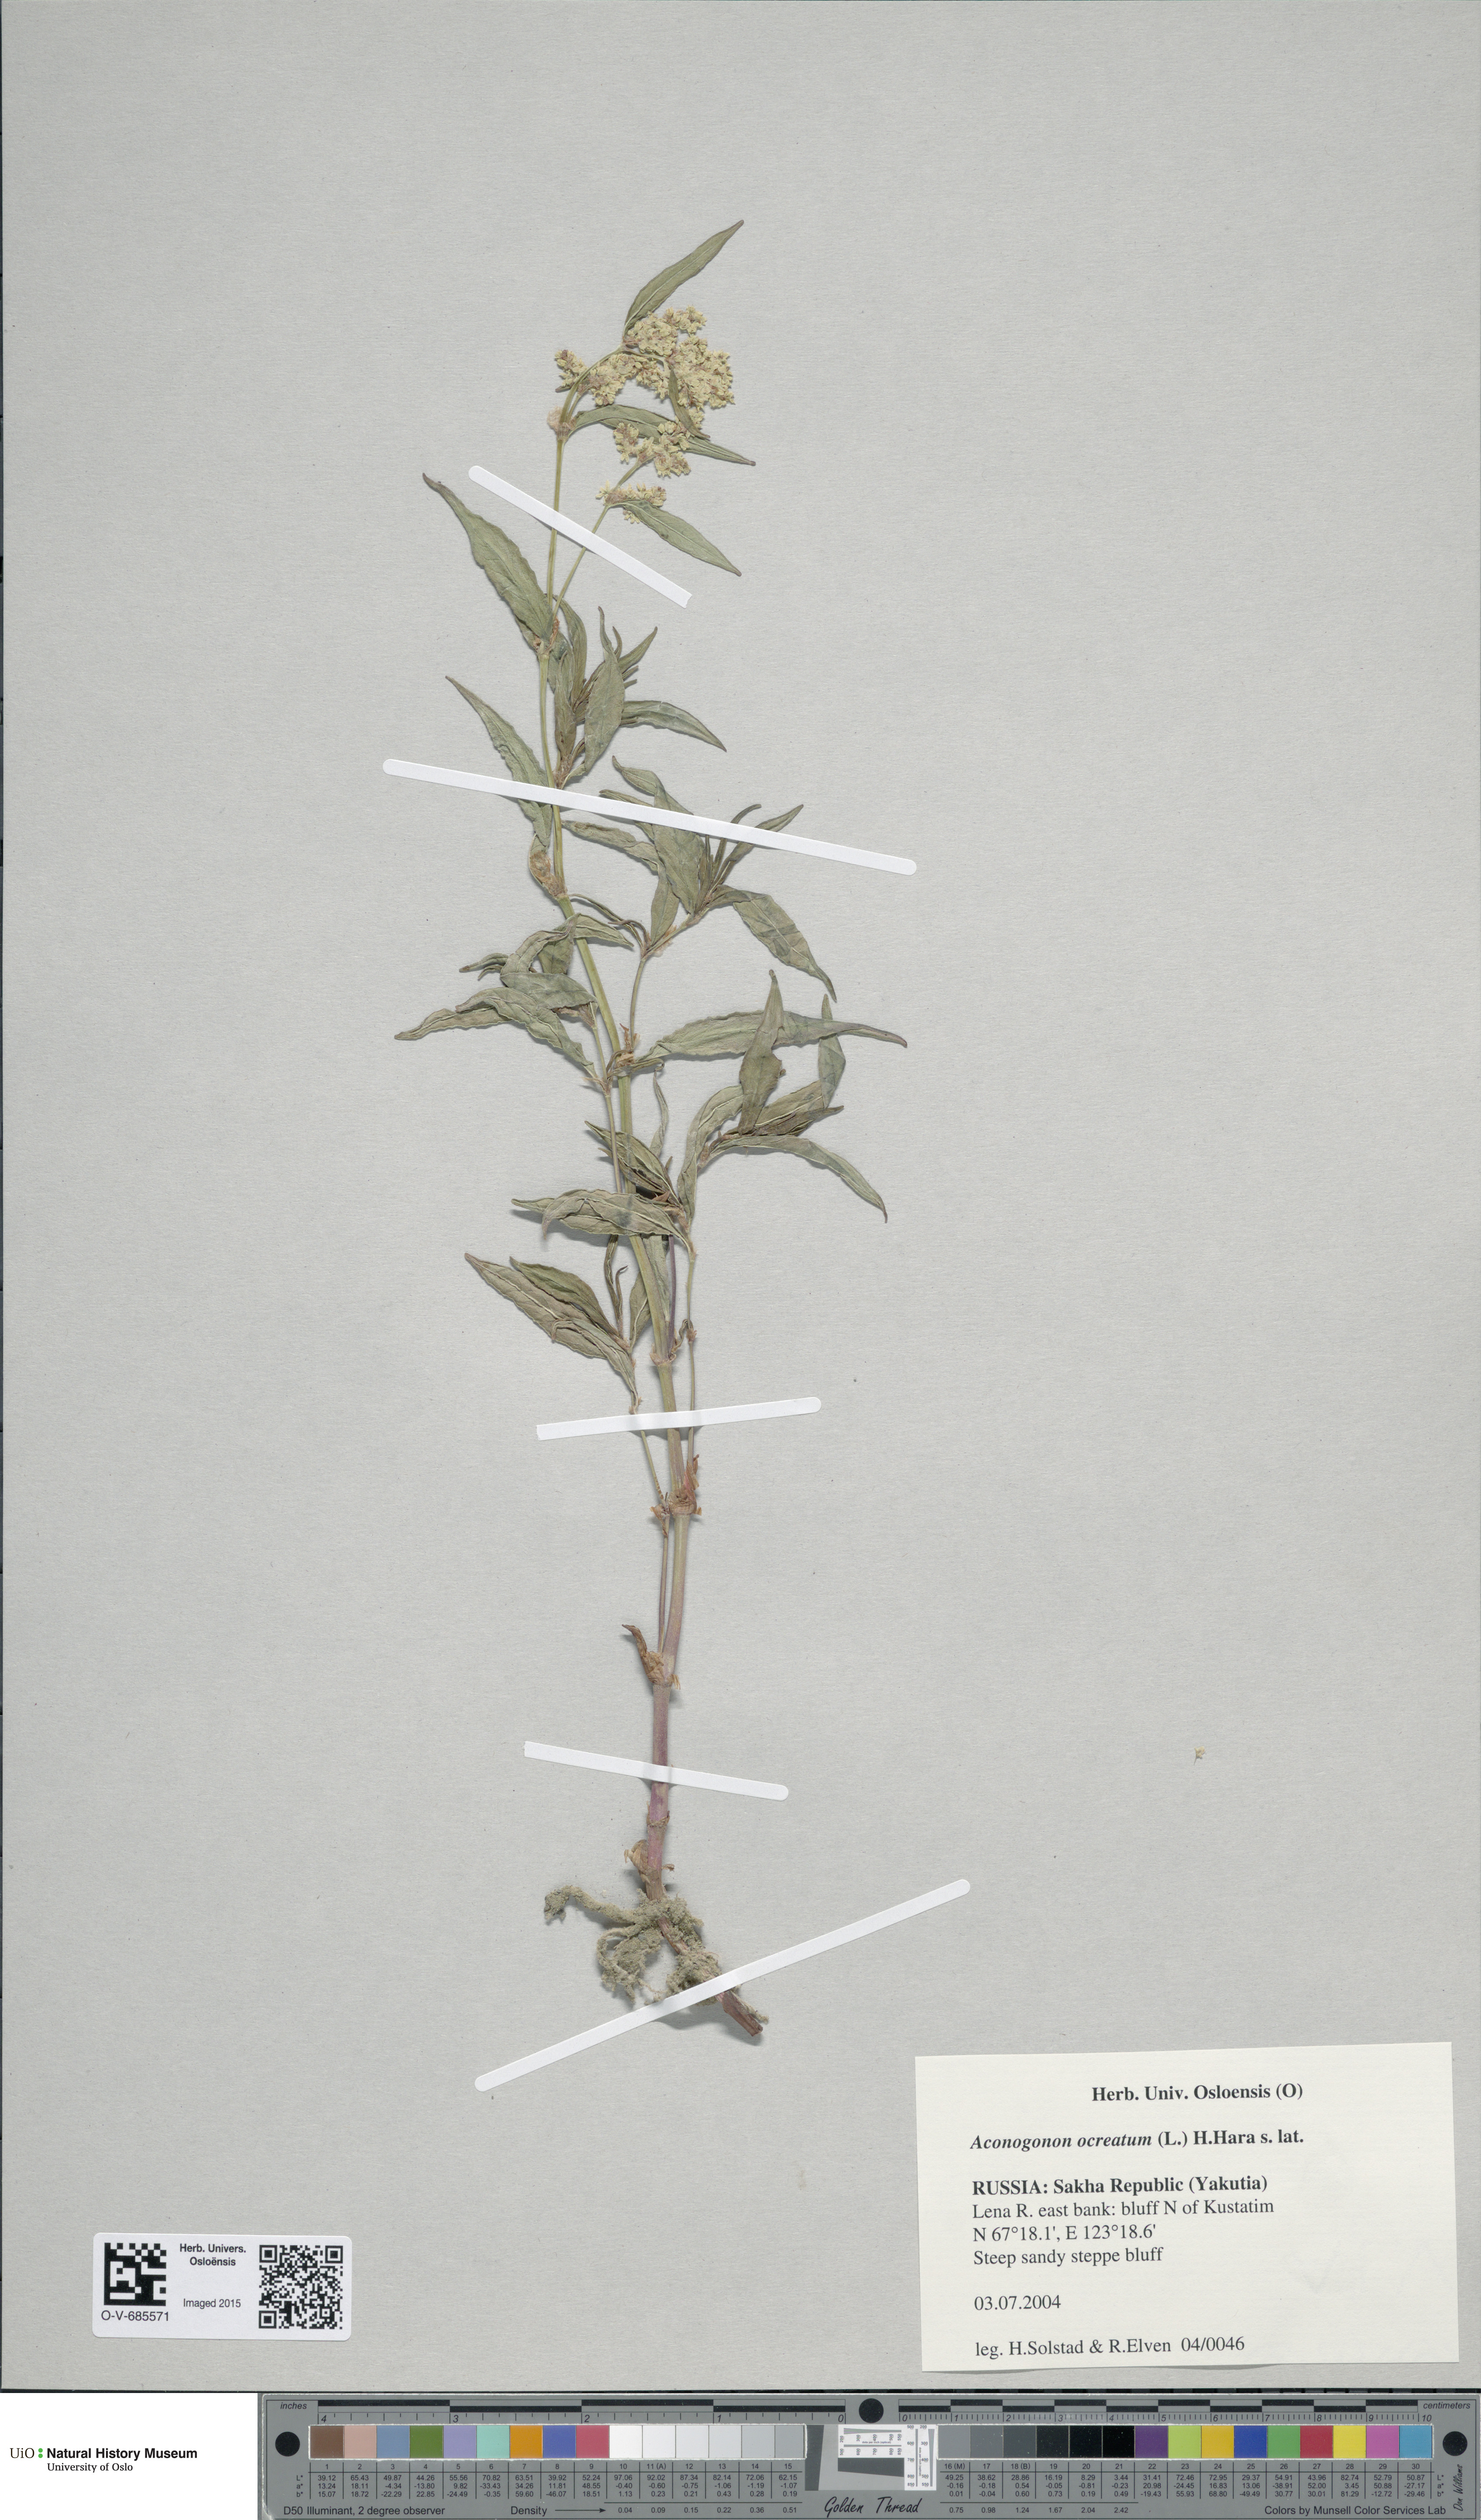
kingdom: Plantae
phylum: Tracheophyta
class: Magnoliopsida
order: Caryophyllales
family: Polygonaceae
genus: Koenigia
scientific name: Koenigia ocreata
